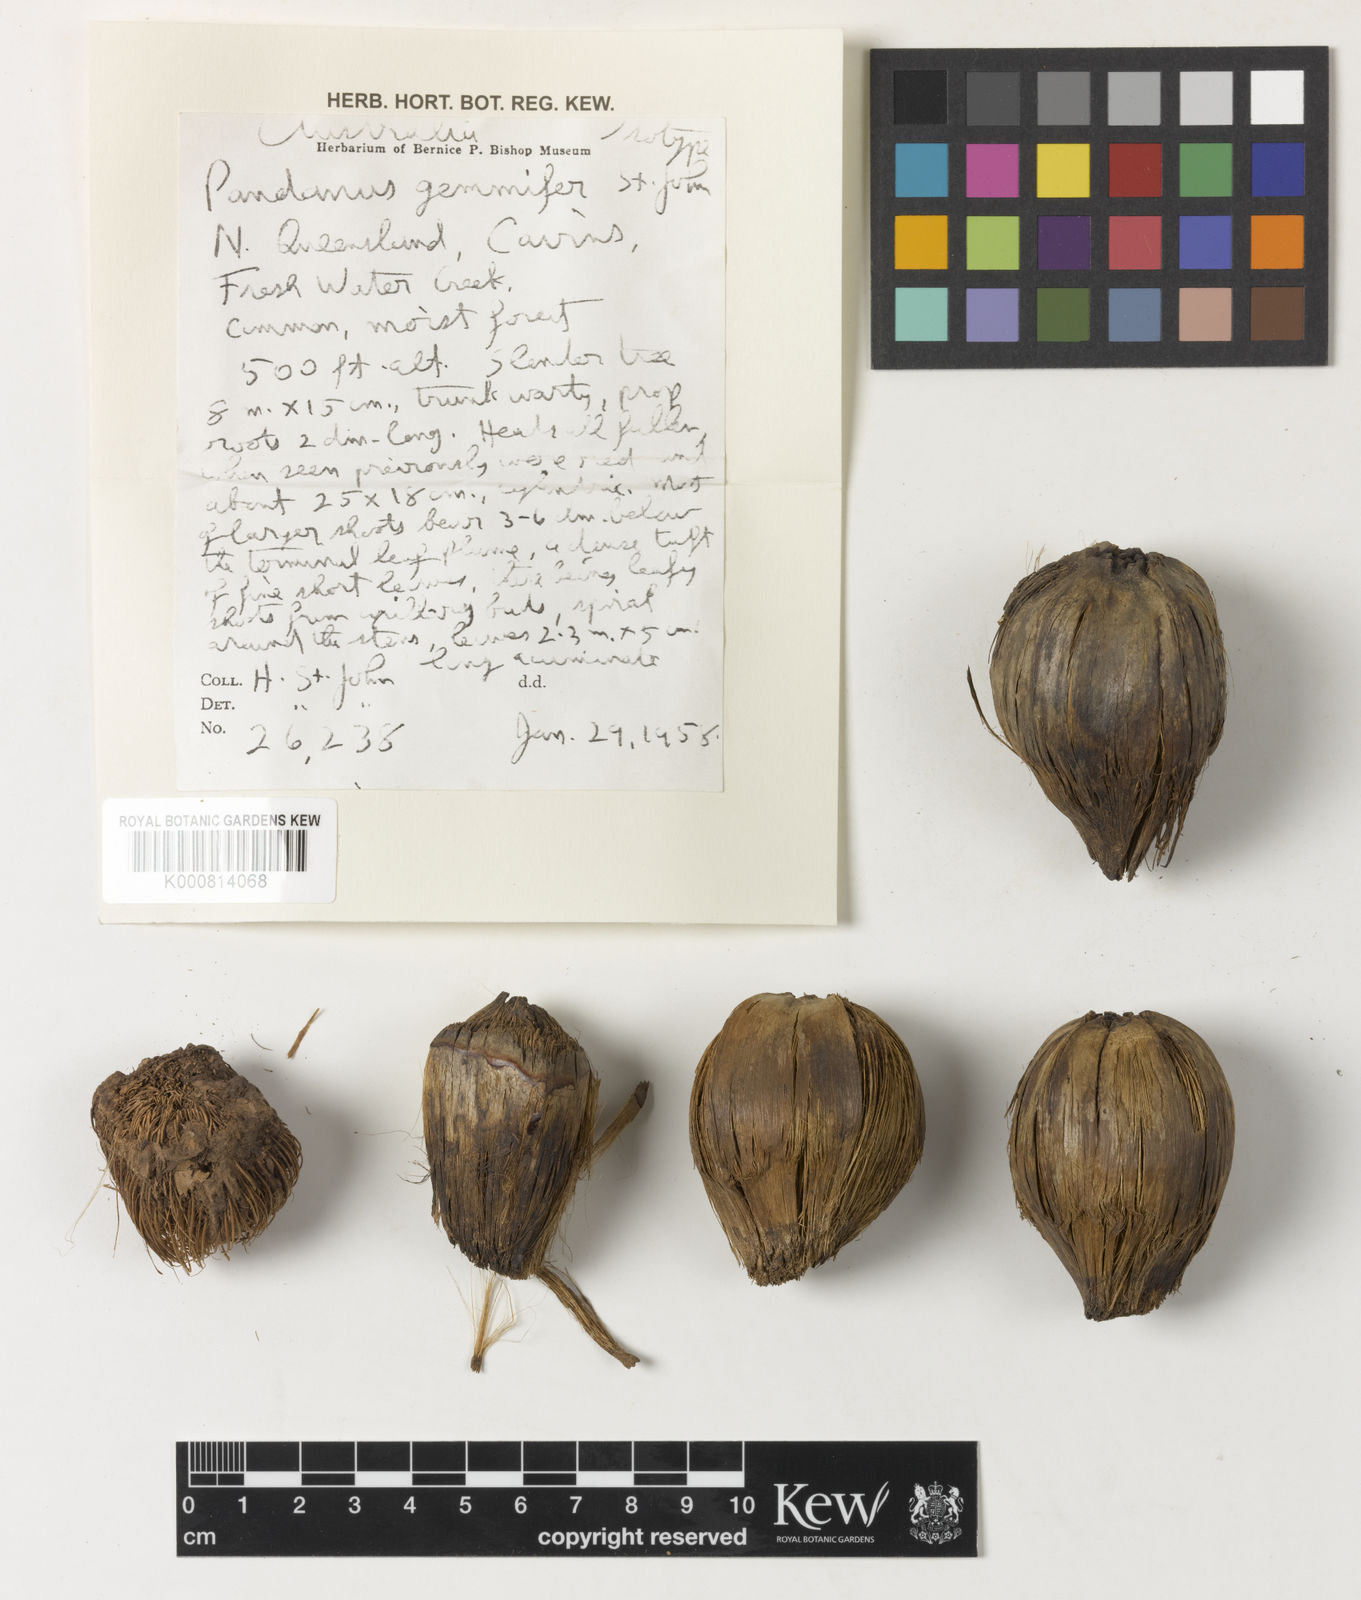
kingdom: Plantae
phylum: Tracheophyta
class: Liliopsida
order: Pandanales
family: Pandanaceae
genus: Pandanus
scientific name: Pandanus
